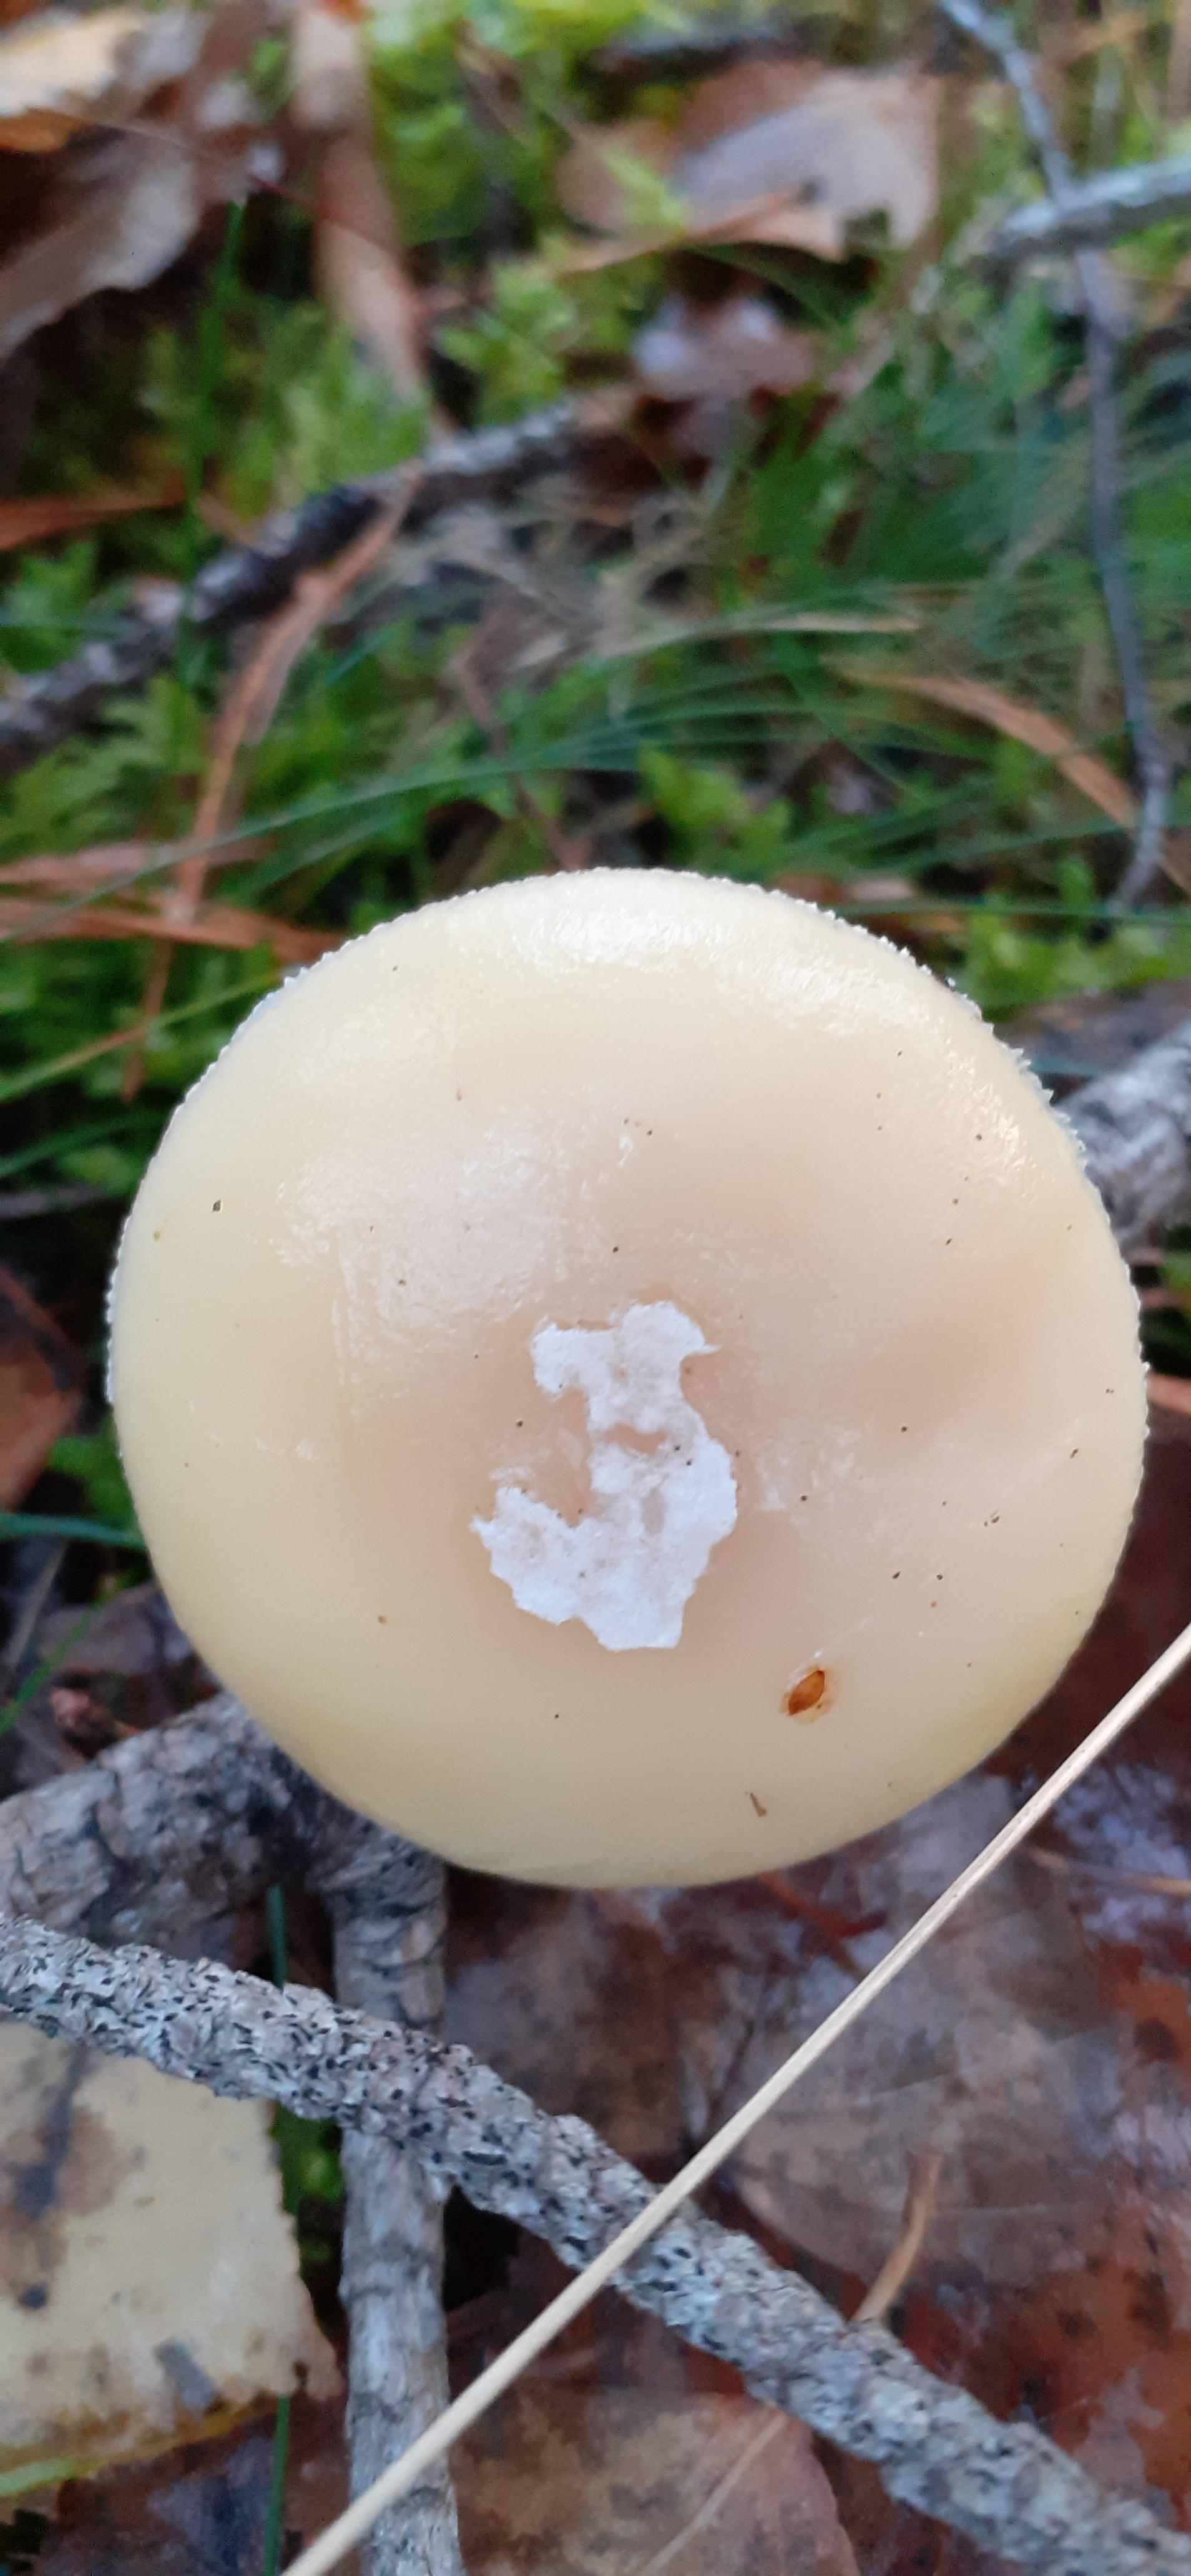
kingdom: Fungi
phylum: Basidiomycota
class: Agaricomycetes
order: Agaricales
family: Amanitaceae
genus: Amanita
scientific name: Amanita gemmata
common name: okkergul fluesvamp
